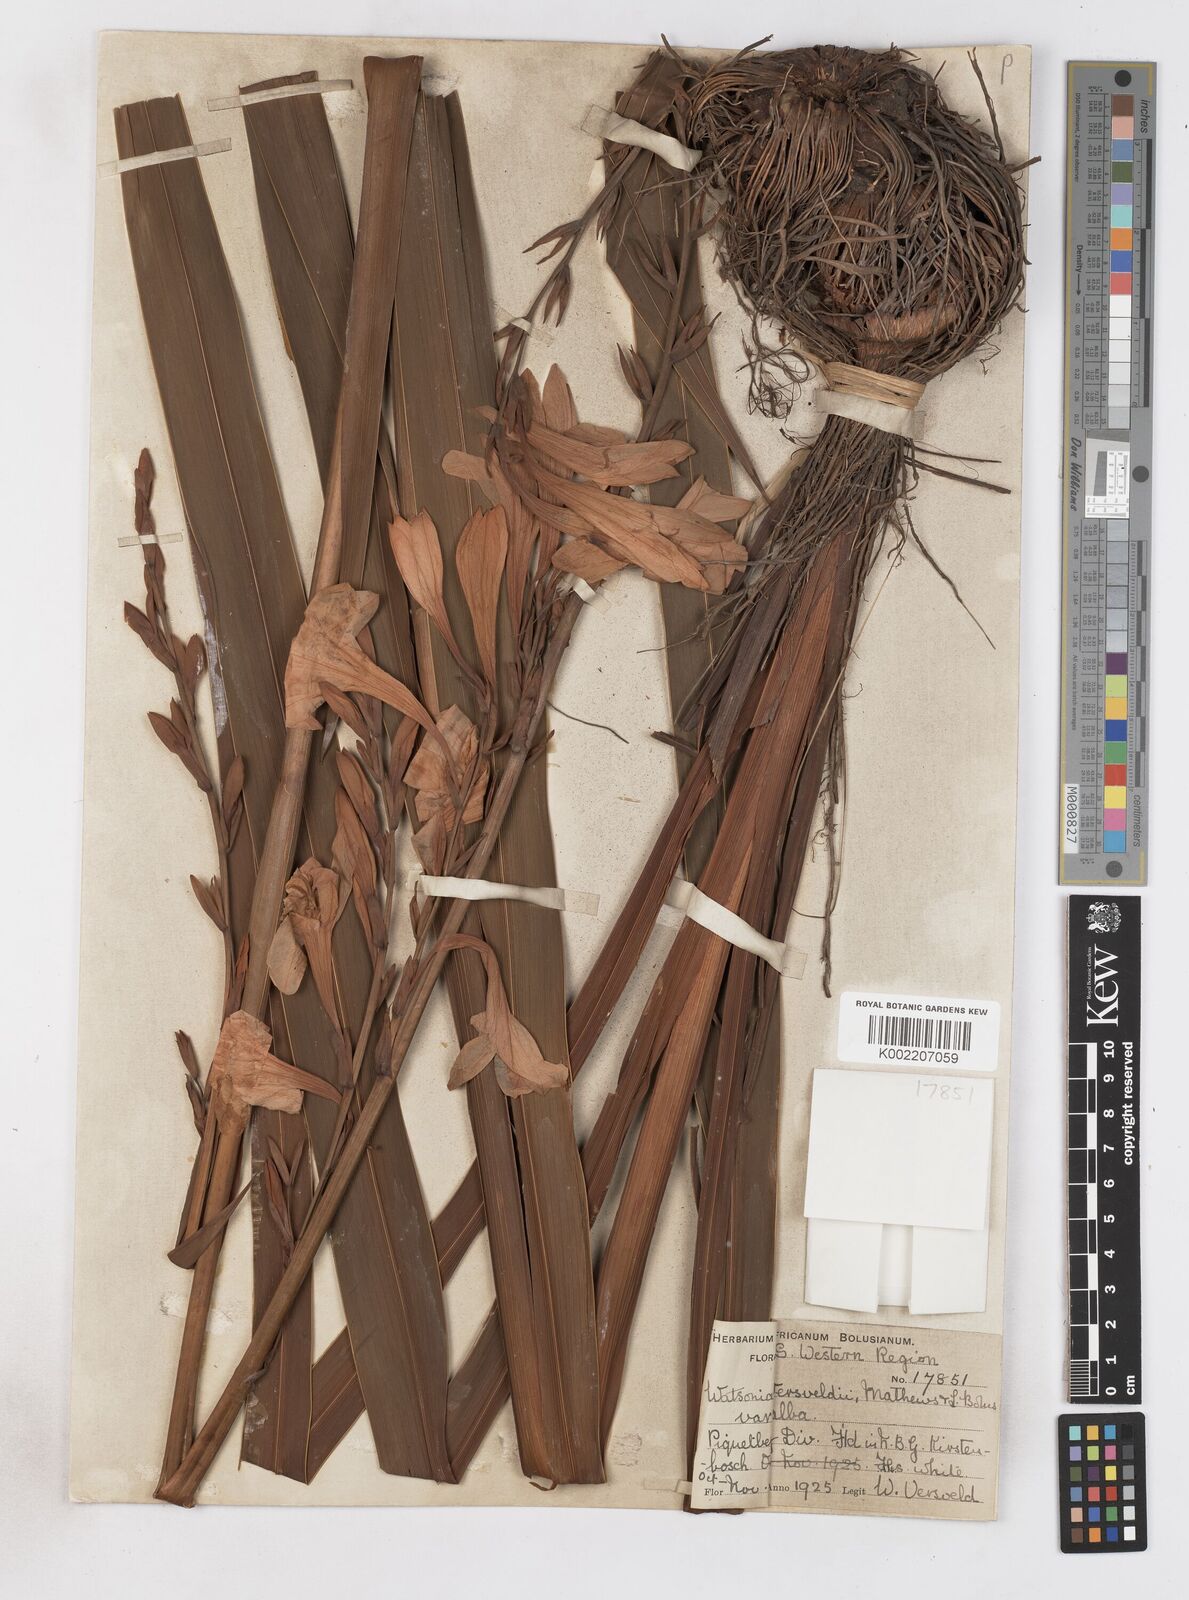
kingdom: Plantae
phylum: Tracheophyta
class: Liliopsida
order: Asparagales
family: Iridaceae
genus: Watsonia
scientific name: Watsonia versfeldii
